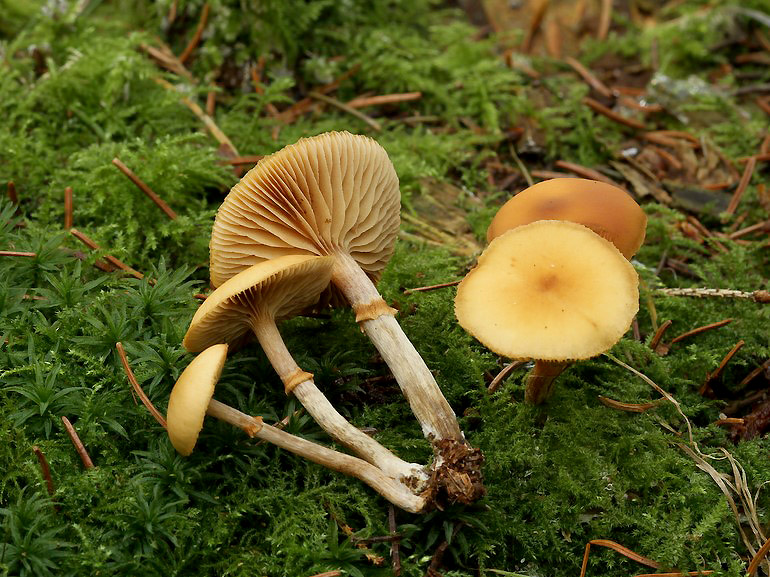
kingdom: Fungi
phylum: Basidiomycota
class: Agaricomycetes
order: Agaricales
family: Hymenogastraceae
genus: Galerina
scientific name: Galerina marginata
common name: randbæltet hjelmhat
